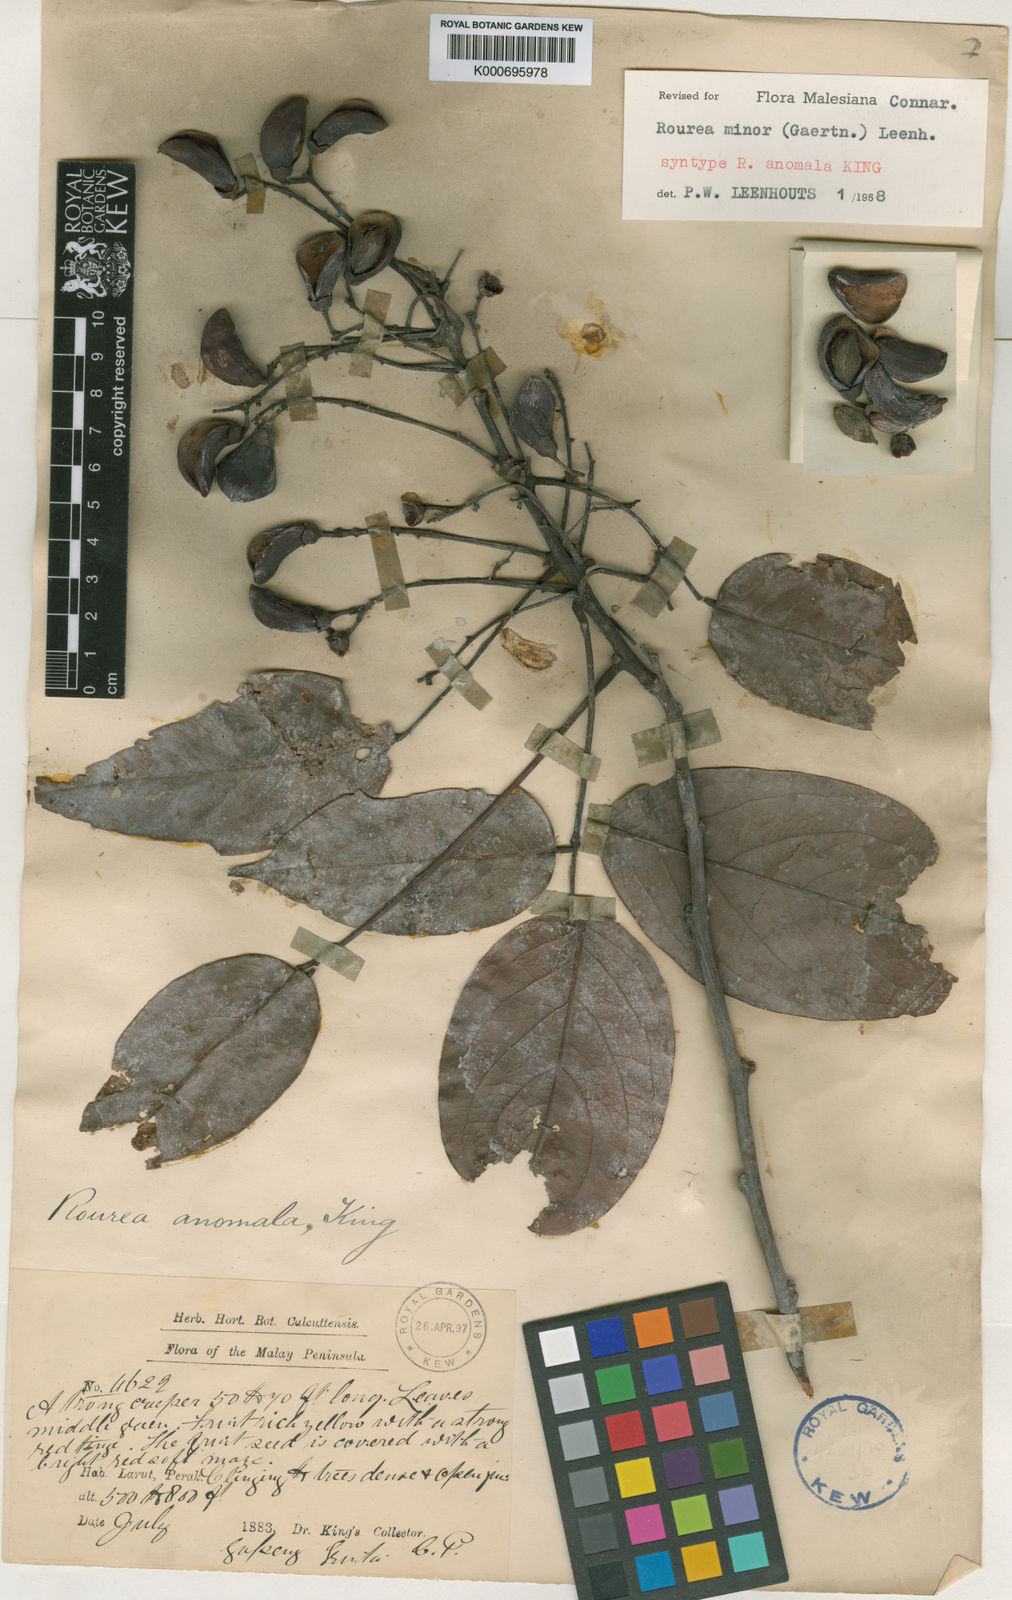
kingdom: Plantae
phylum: Tracheophyta
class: Magnoliopsida
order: Oxalidales
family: Connaraceae
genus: Rourea
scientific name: Rourea
